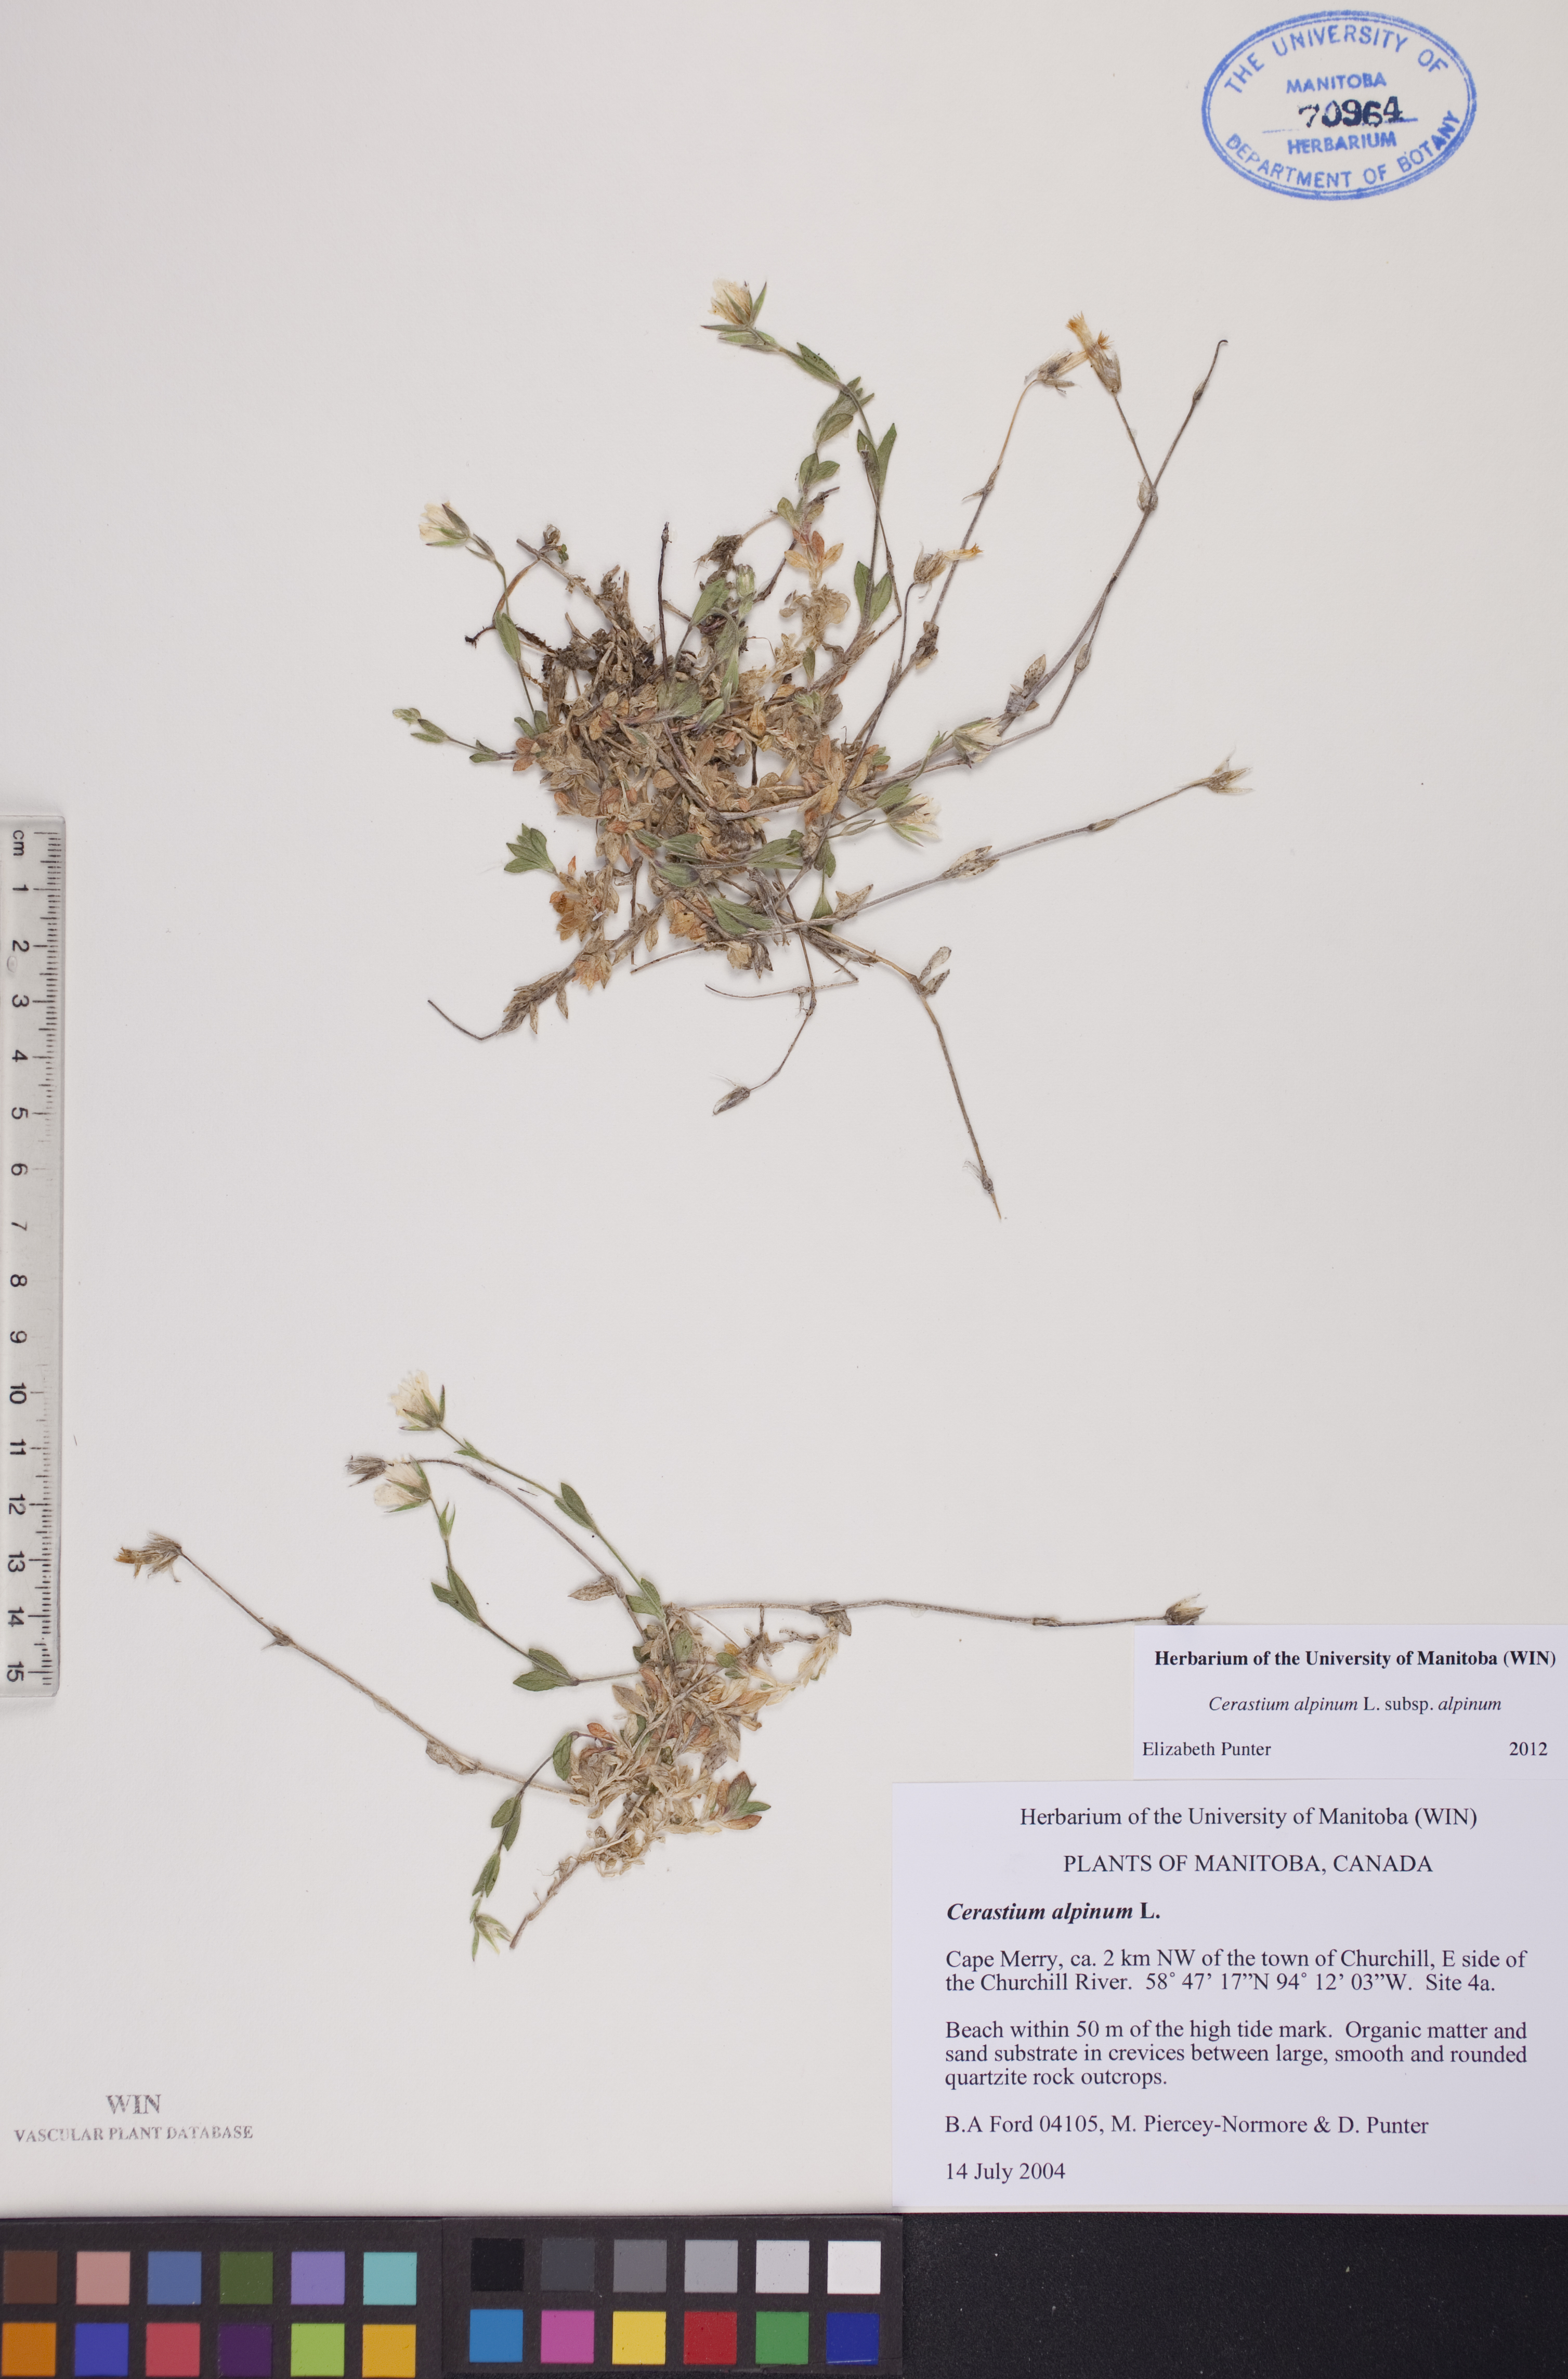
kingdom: Plantae
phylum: Tracheophyta
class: Magnoliopsida
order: Caryophyllales
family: Caryophyllaceae
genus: Cerastium
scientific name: Cerastium alpinum
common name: Alpine mouse-ear
